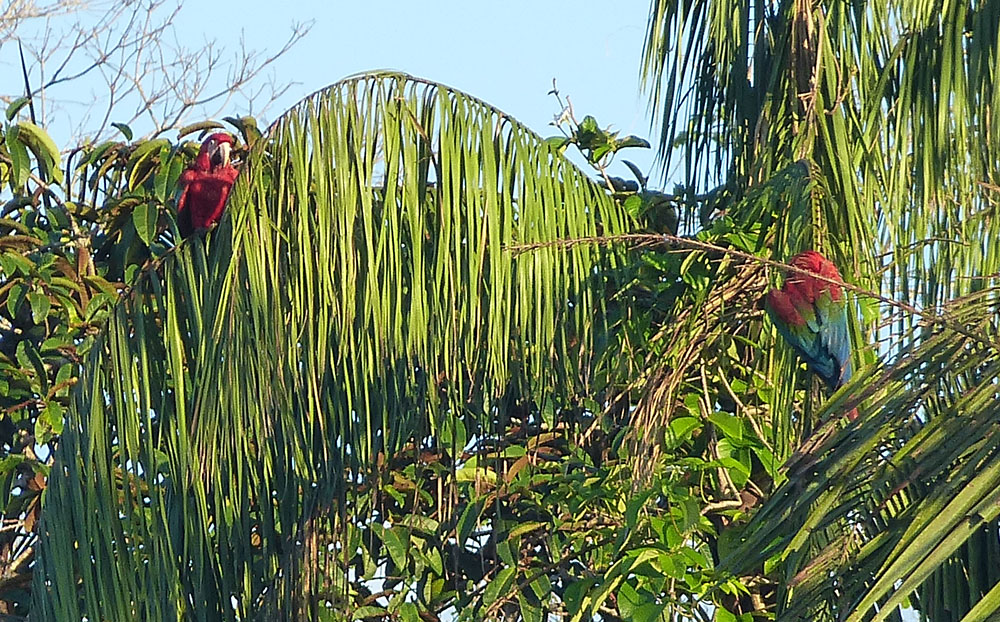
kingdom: Animalia
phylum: Chordata
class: Aves
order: Psittaciformes
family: Psittacidae
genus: Ara
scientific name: Ara chloropterus
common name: Red-and-green macaw
